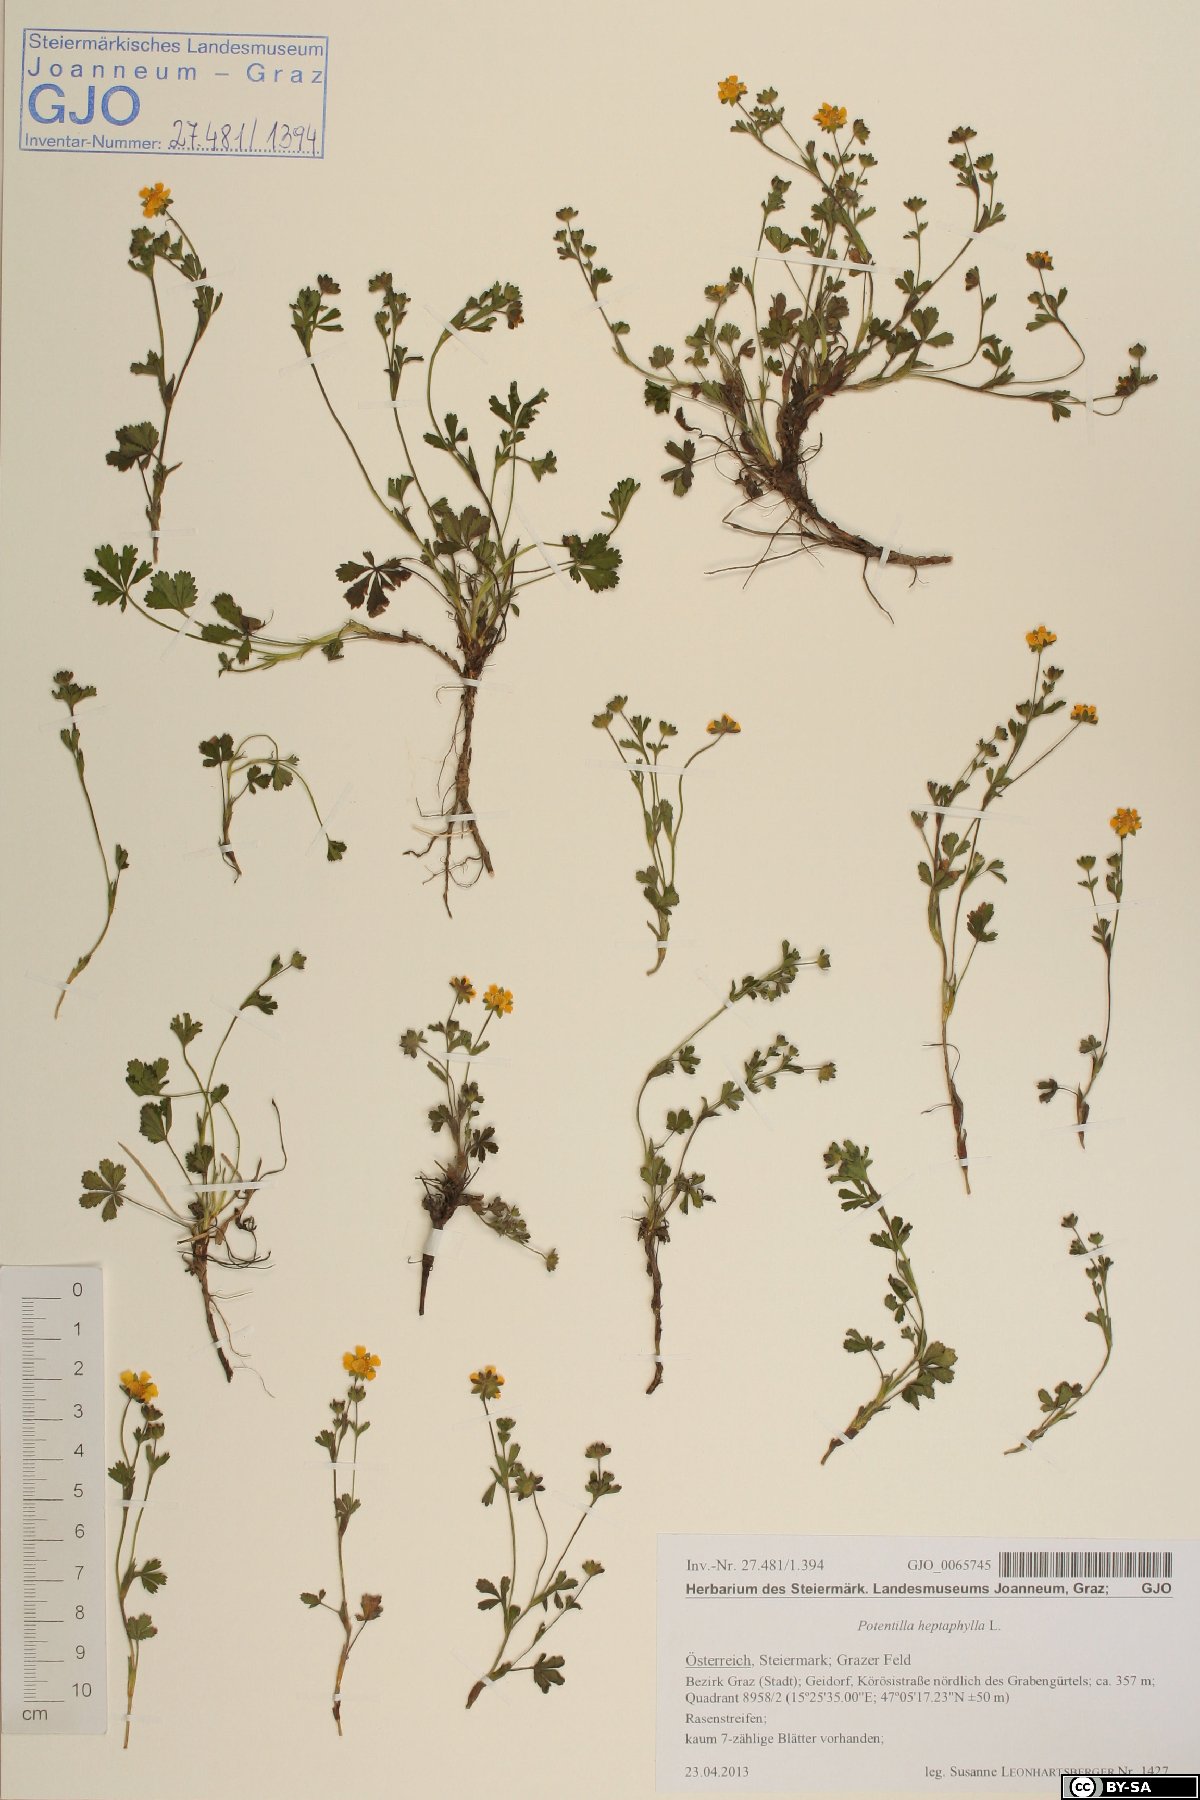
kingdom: Plantae
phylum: Tracheophyta
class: Magnoliopsida
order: Rosales
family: Rosaceae
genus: Potentilla
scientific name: Potentilla heptaphylla
